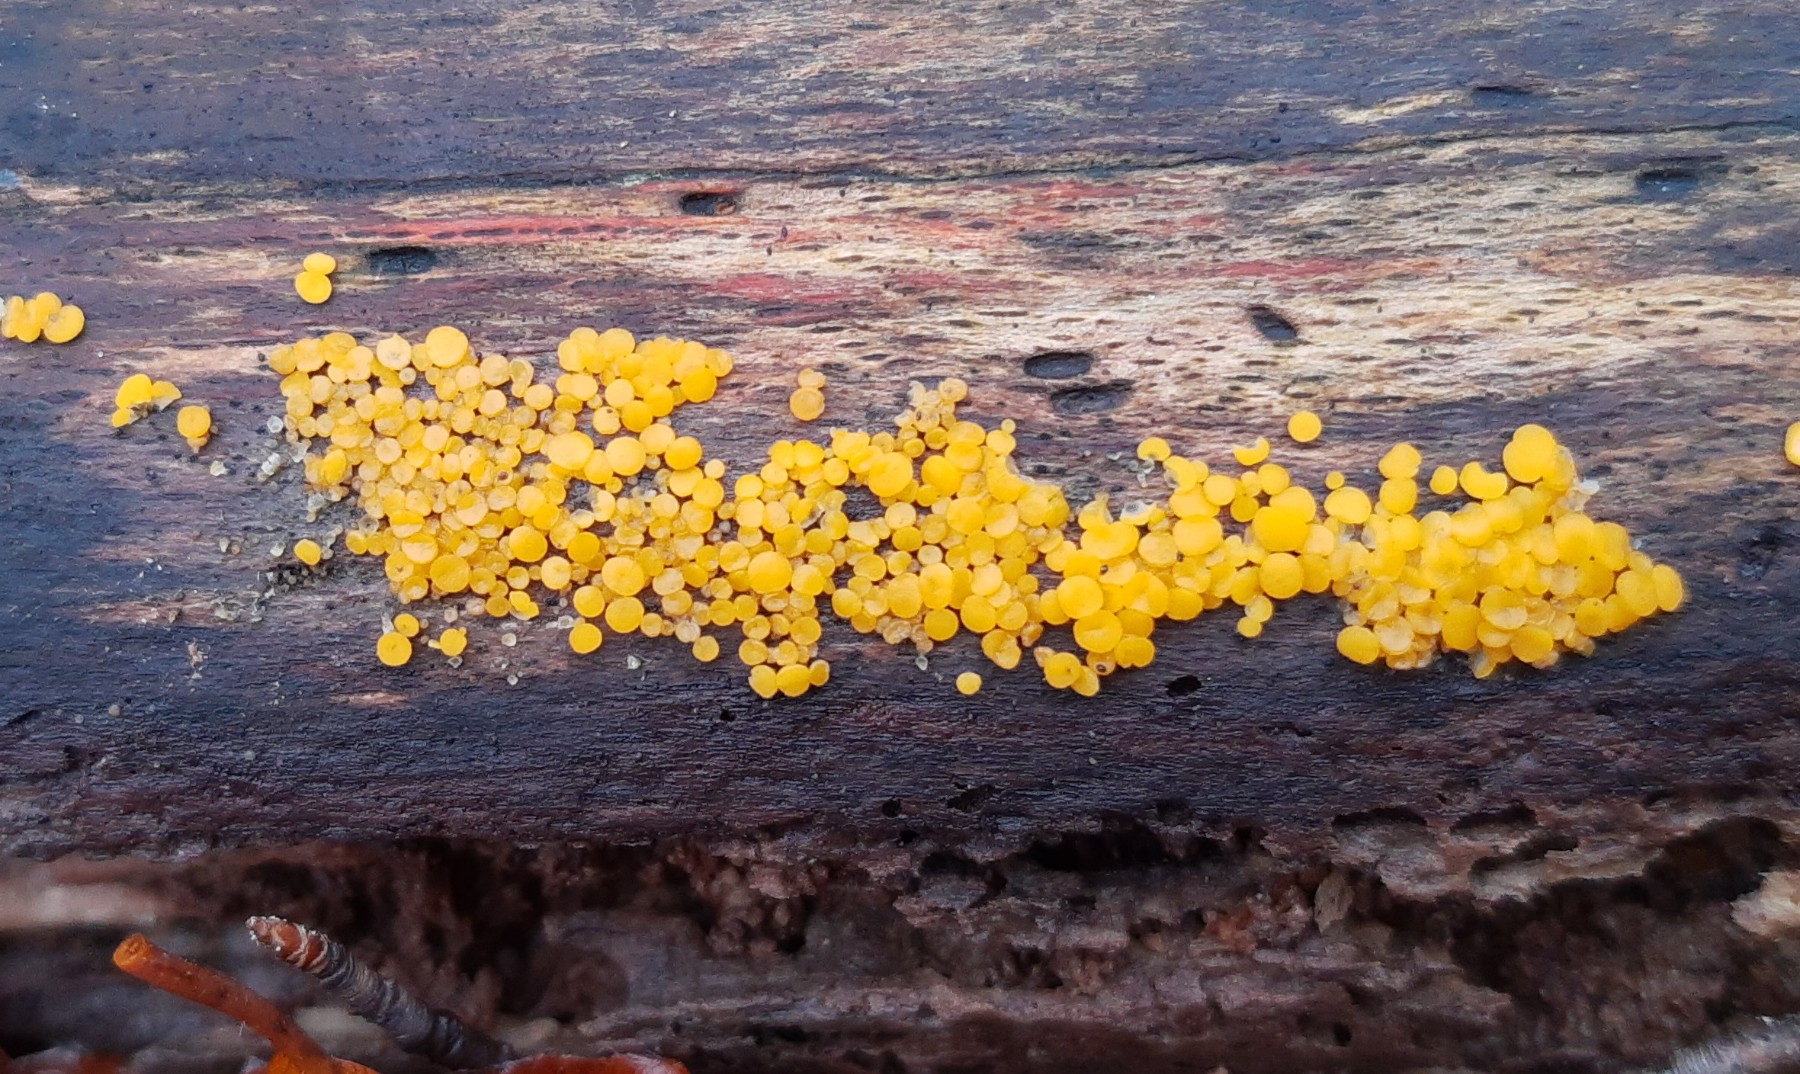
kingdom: Fungi
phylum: Ascomycota
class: Leotiomycetes
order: Helotiales
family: Pezizellaceae
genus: Calycina
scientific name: Calycina citrina
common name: almindelig gulskive
